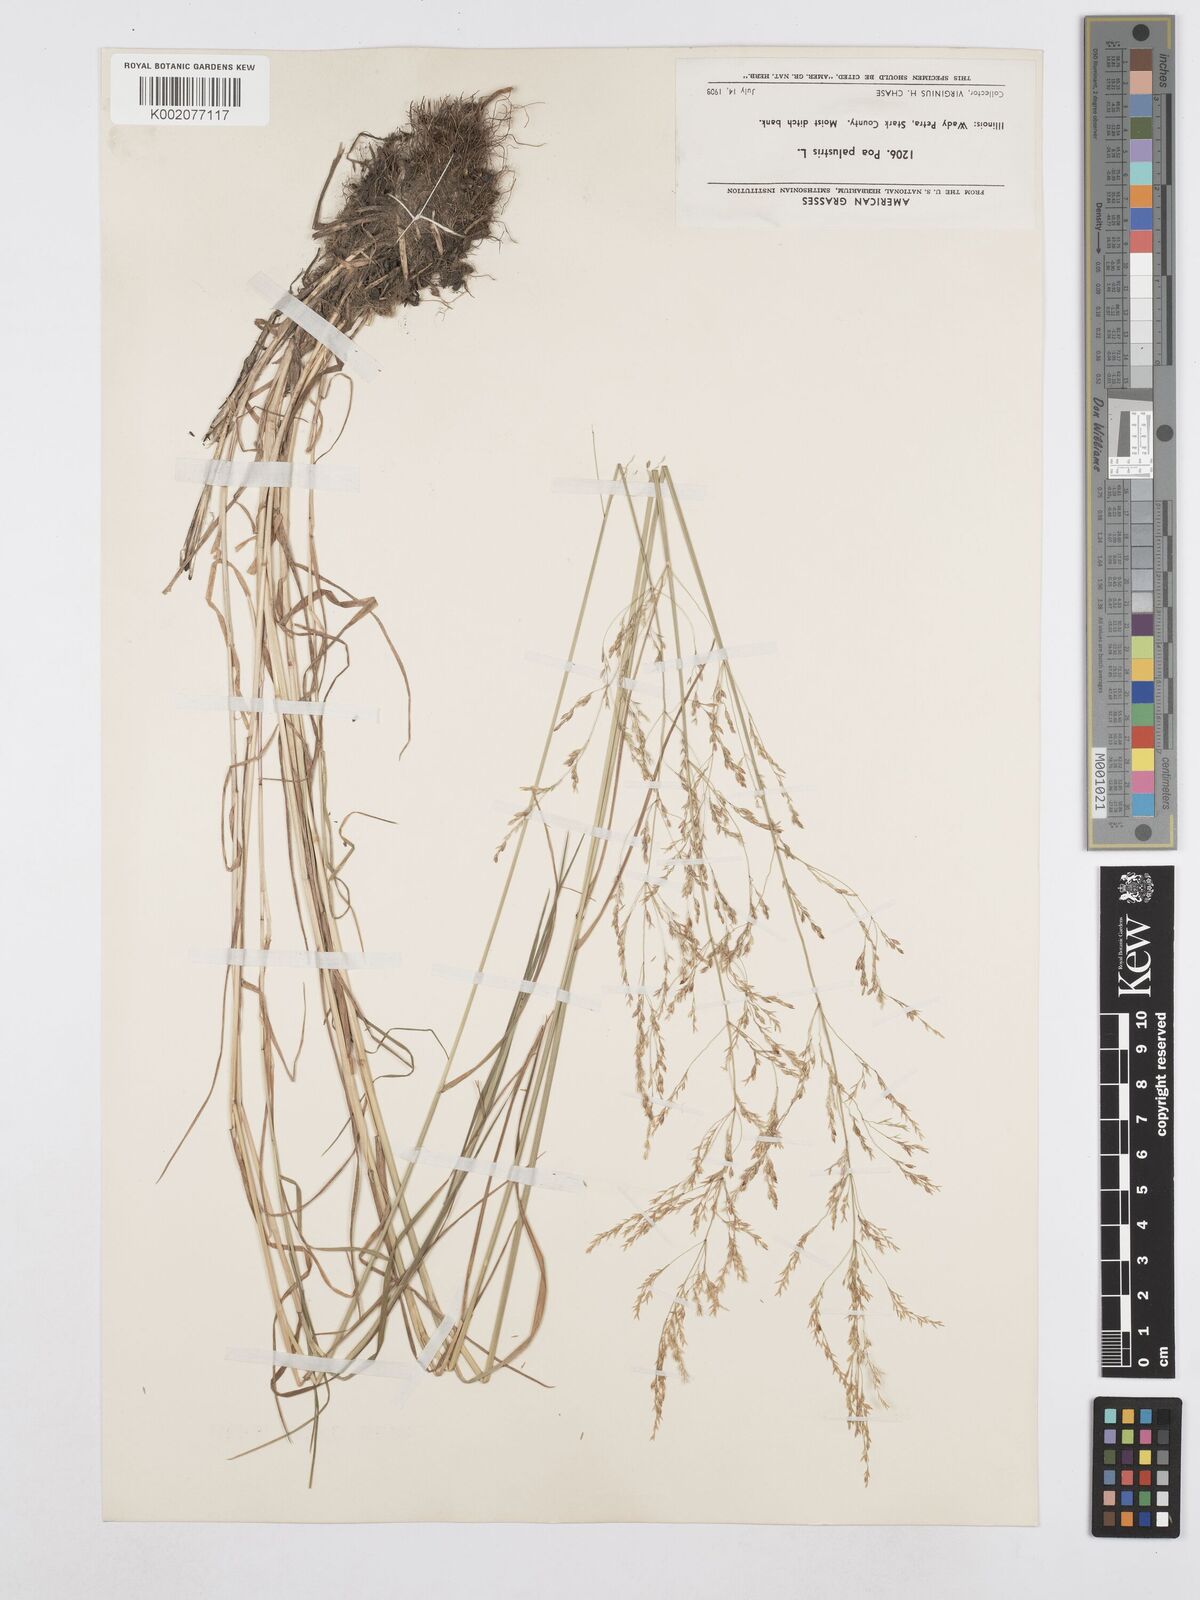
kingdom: Plantae
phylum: Tracheophyta
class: Liliopsida
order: Poales
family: Poaceae
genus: Poa
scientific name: Poa palustris
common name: Swamp meadow-grass
